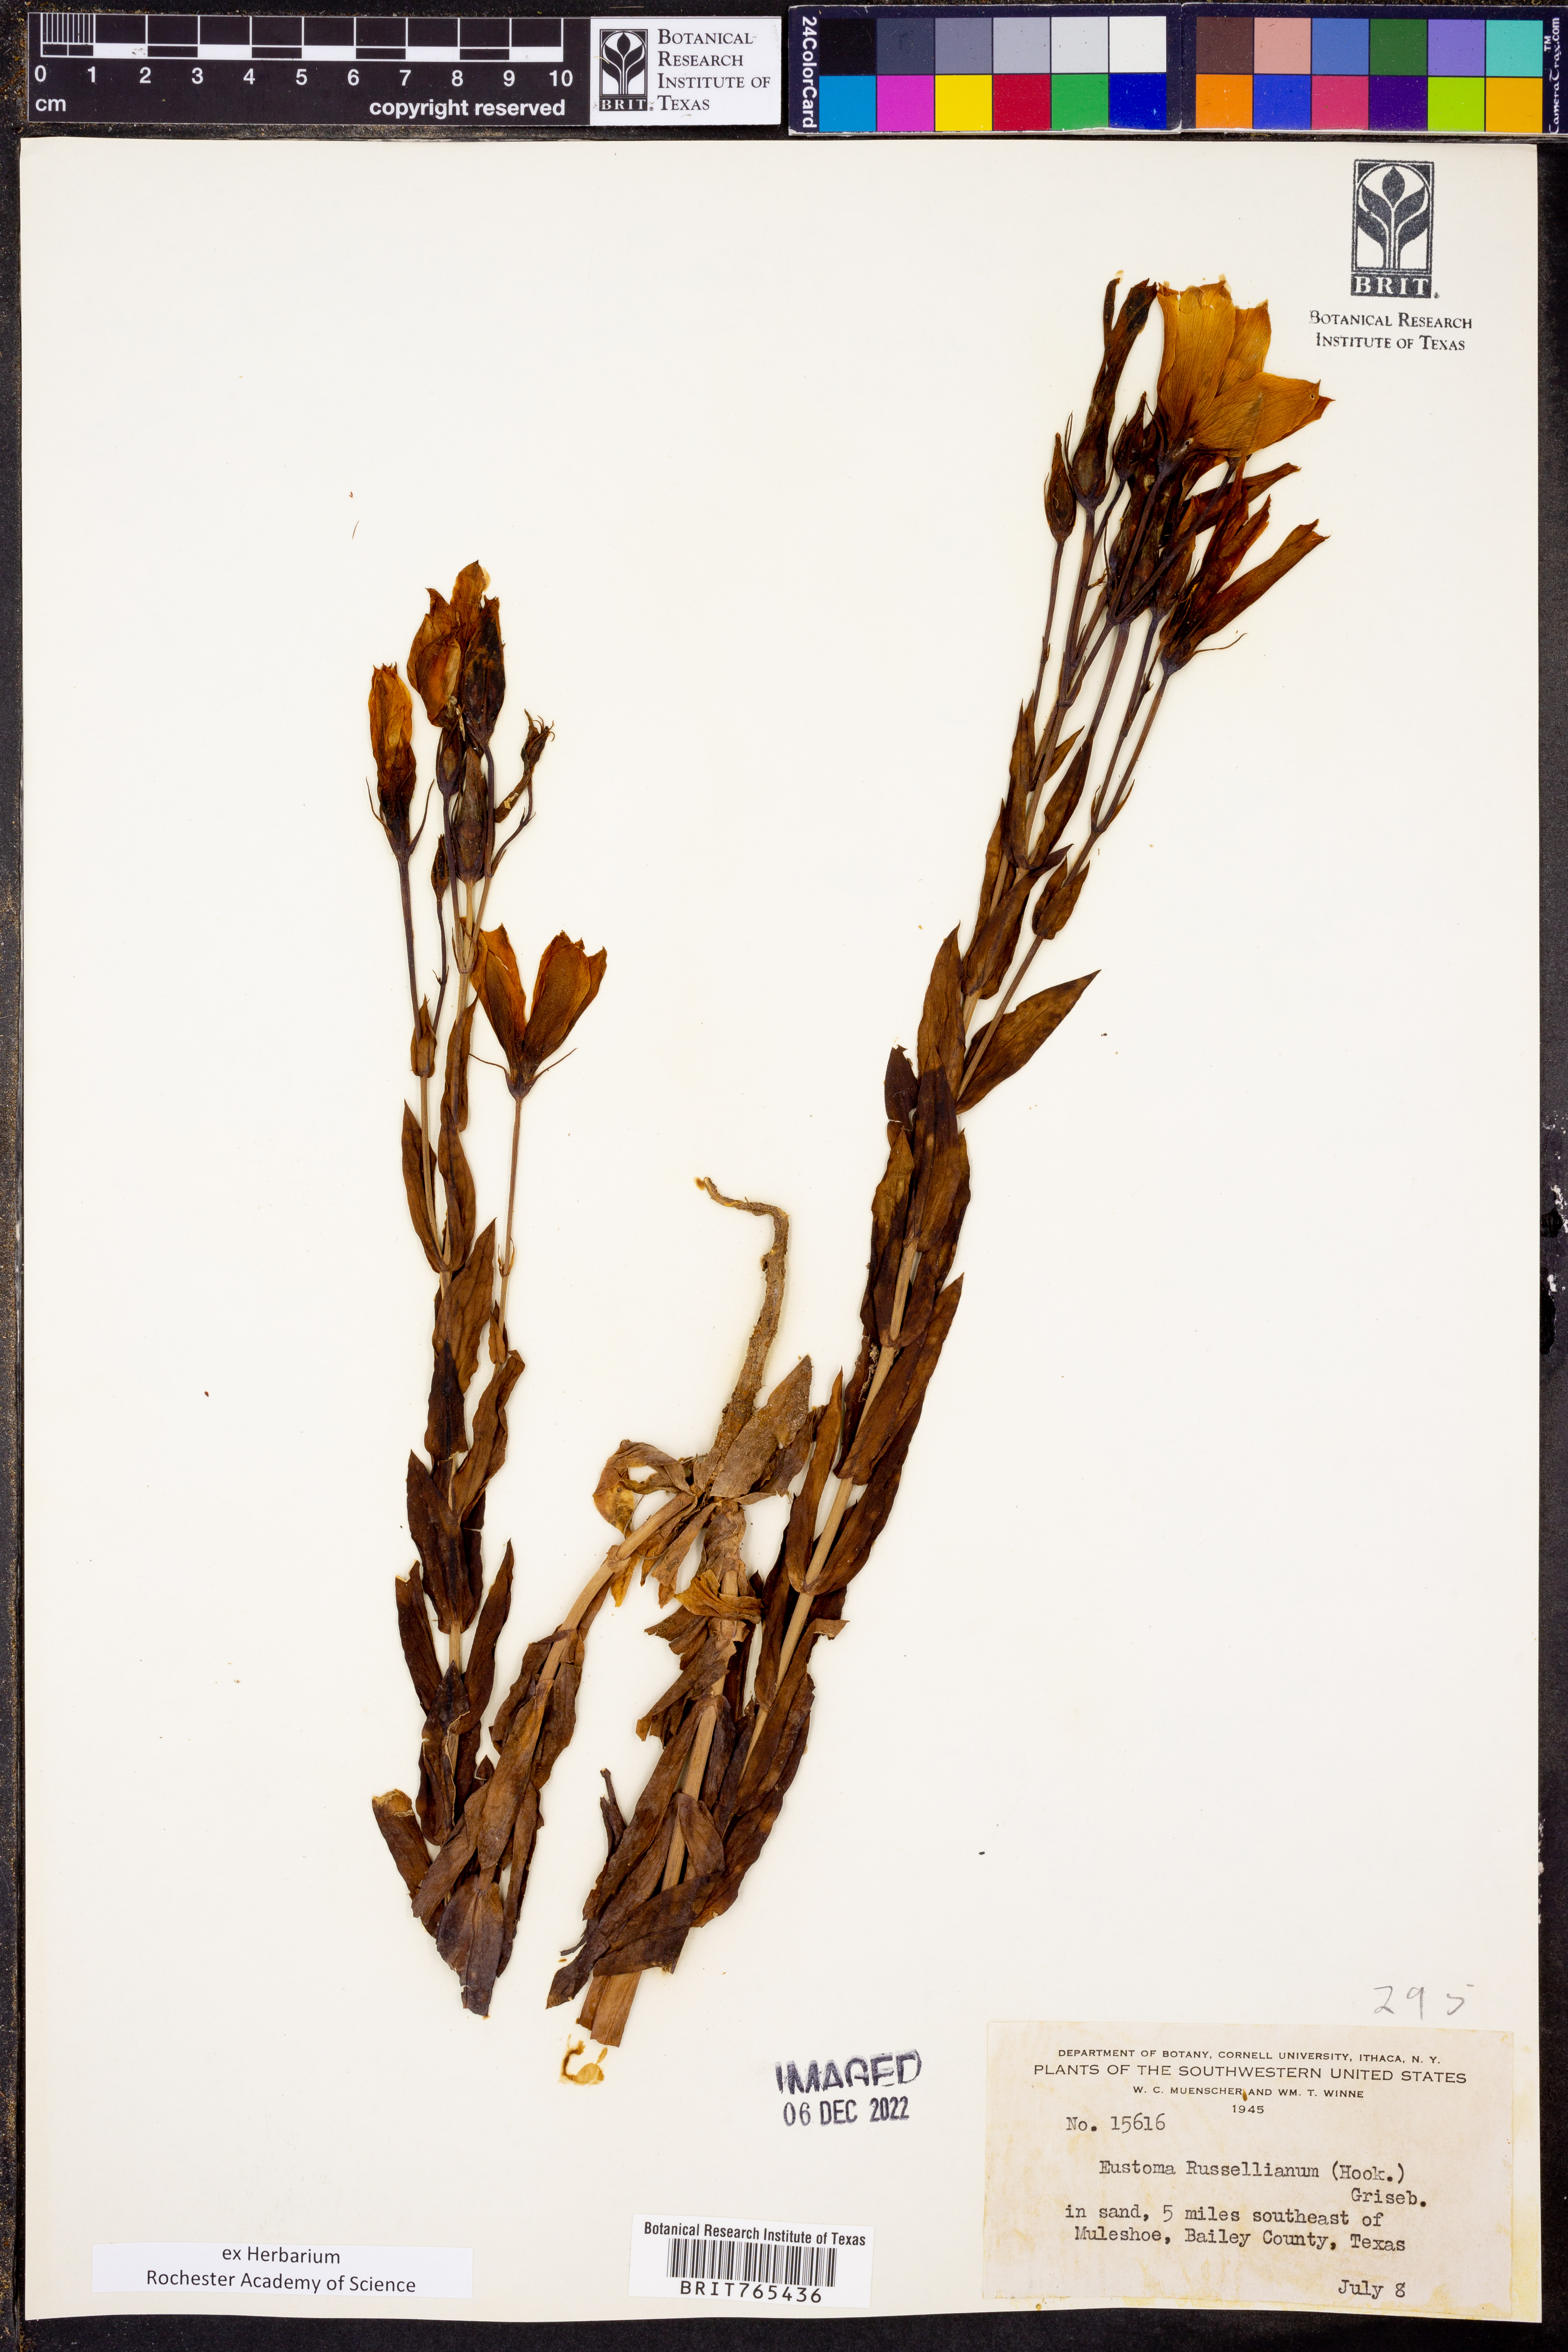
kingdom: Plantae
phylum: Tracheophyta
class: Magnoliopsida
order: Gentianales
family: Gentianaceae
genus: Eustoma
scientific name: Eustoma russellianum
